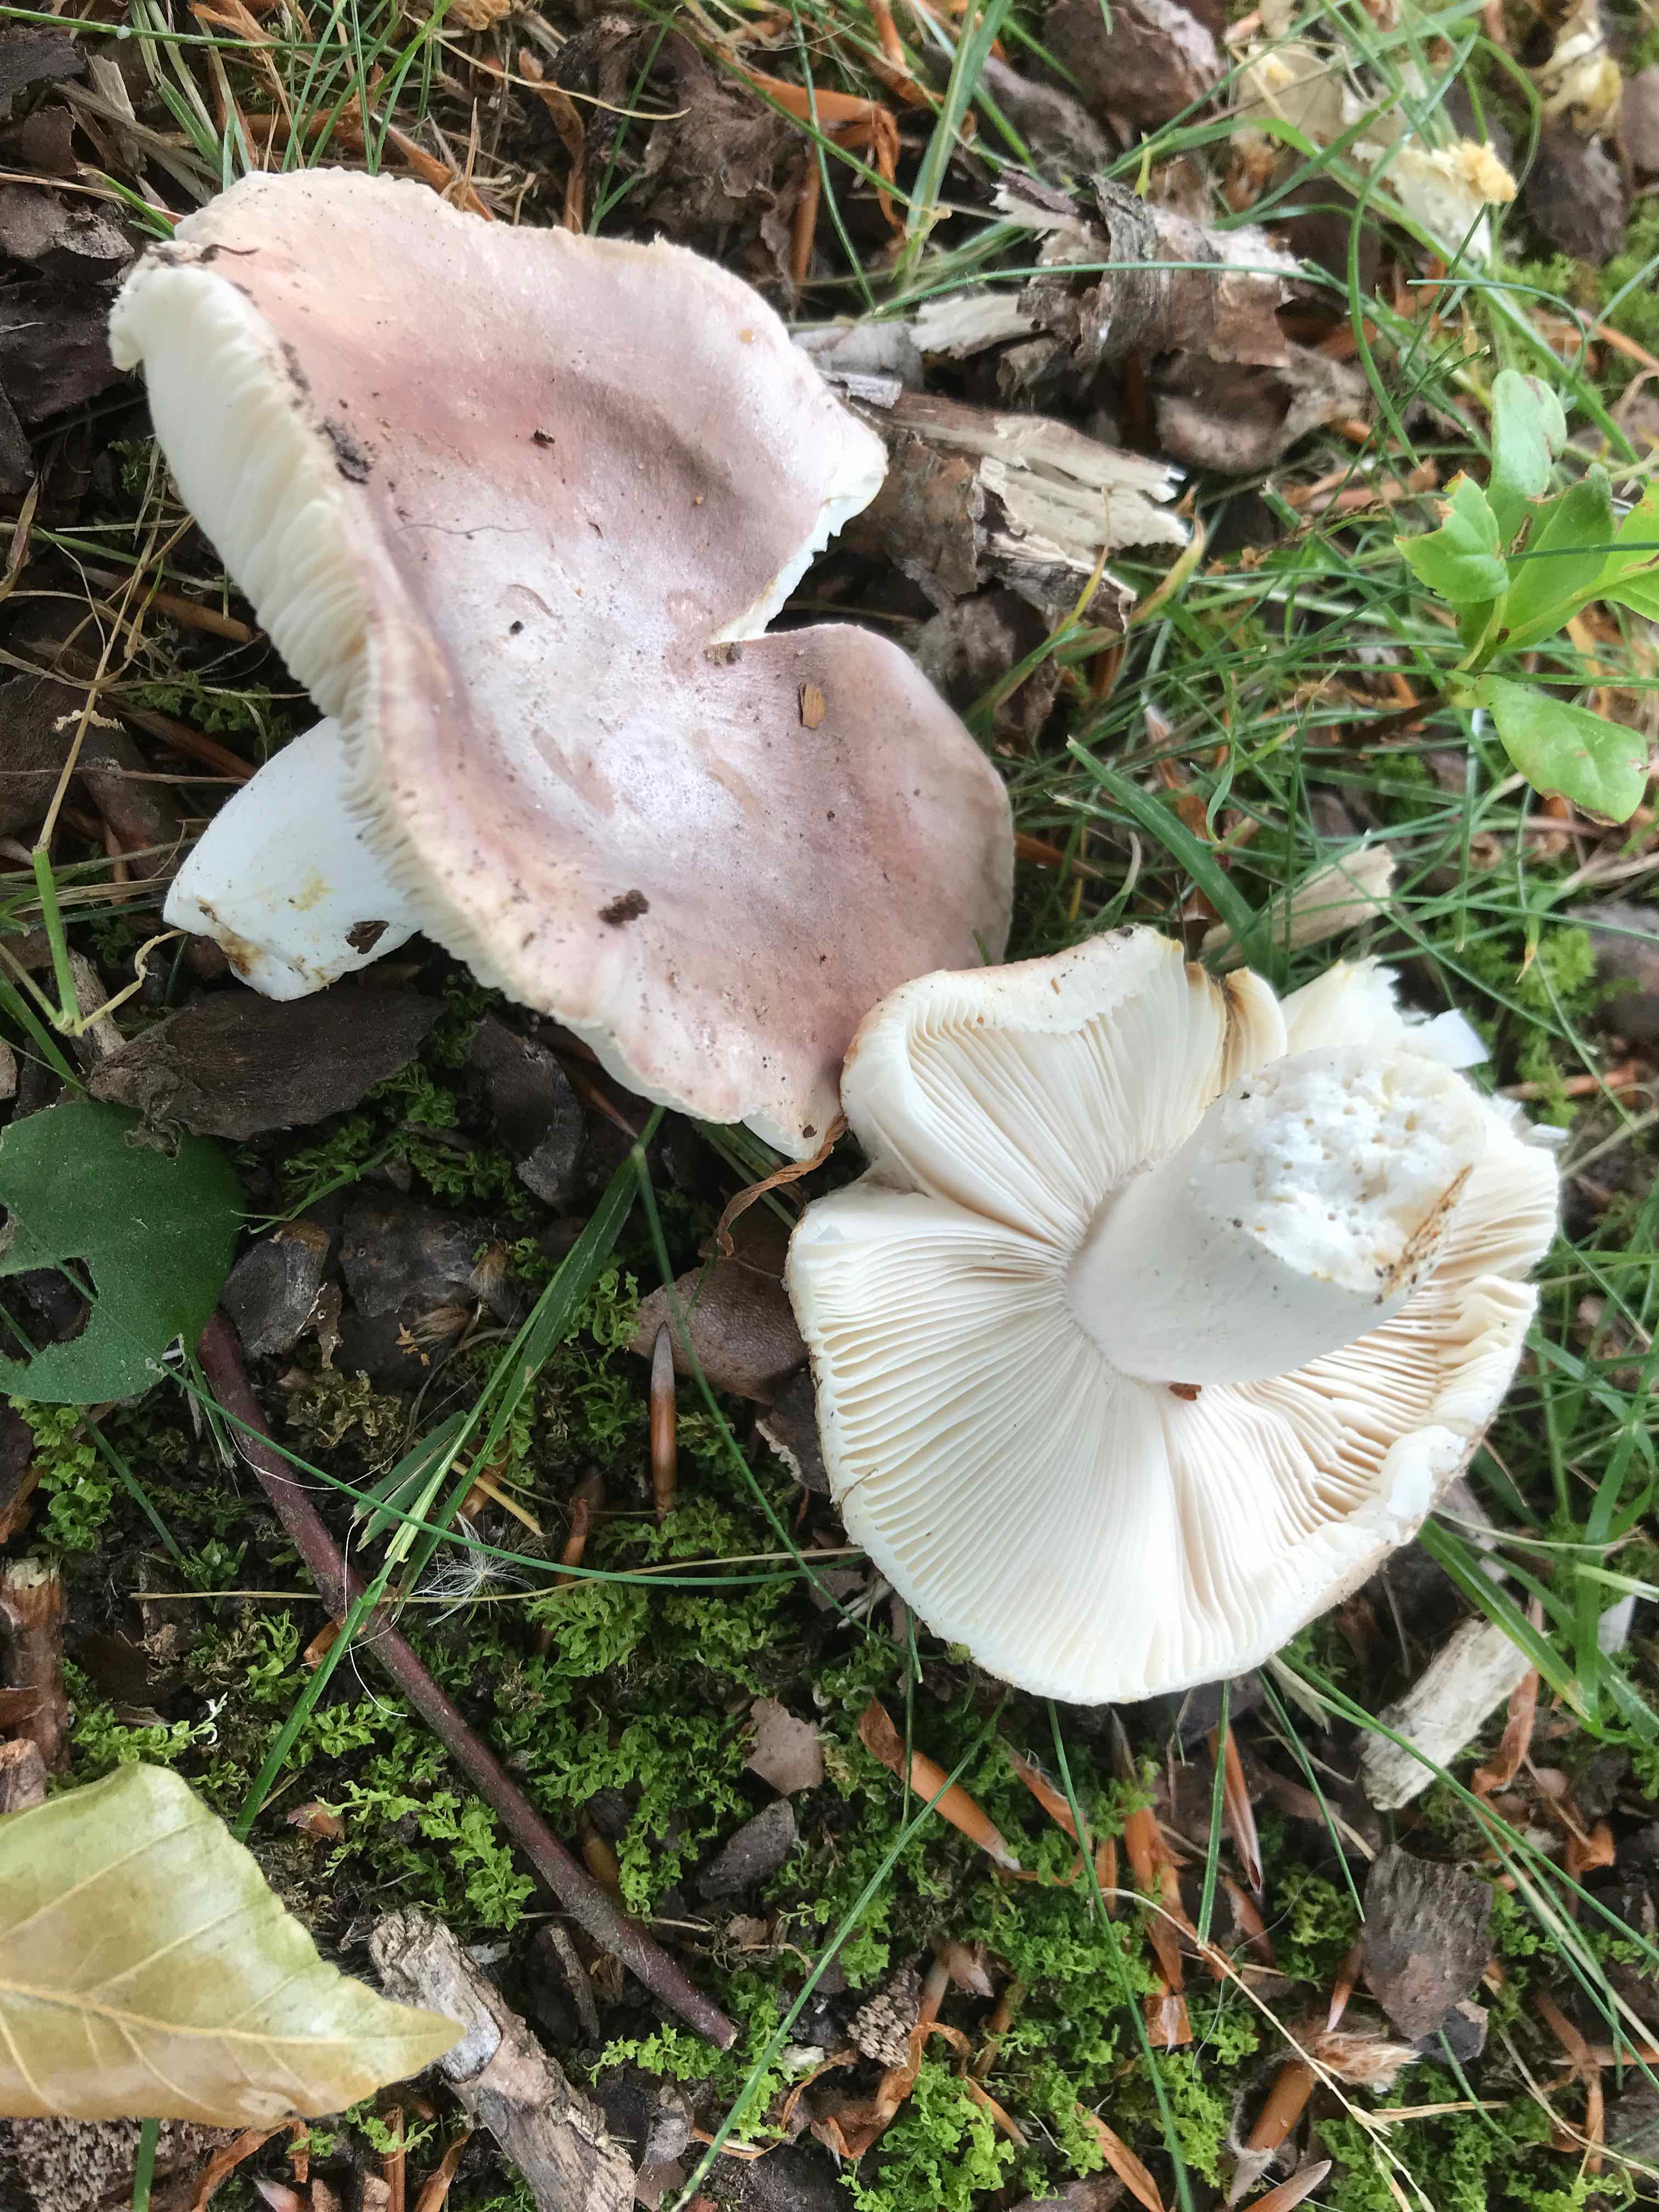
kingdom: Fungi
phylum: Basidiomycota
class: Agaricomycetes
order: Russulales
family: Russulaceae
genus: Russula
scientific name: Russula vesca
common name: spiselig skørhat
